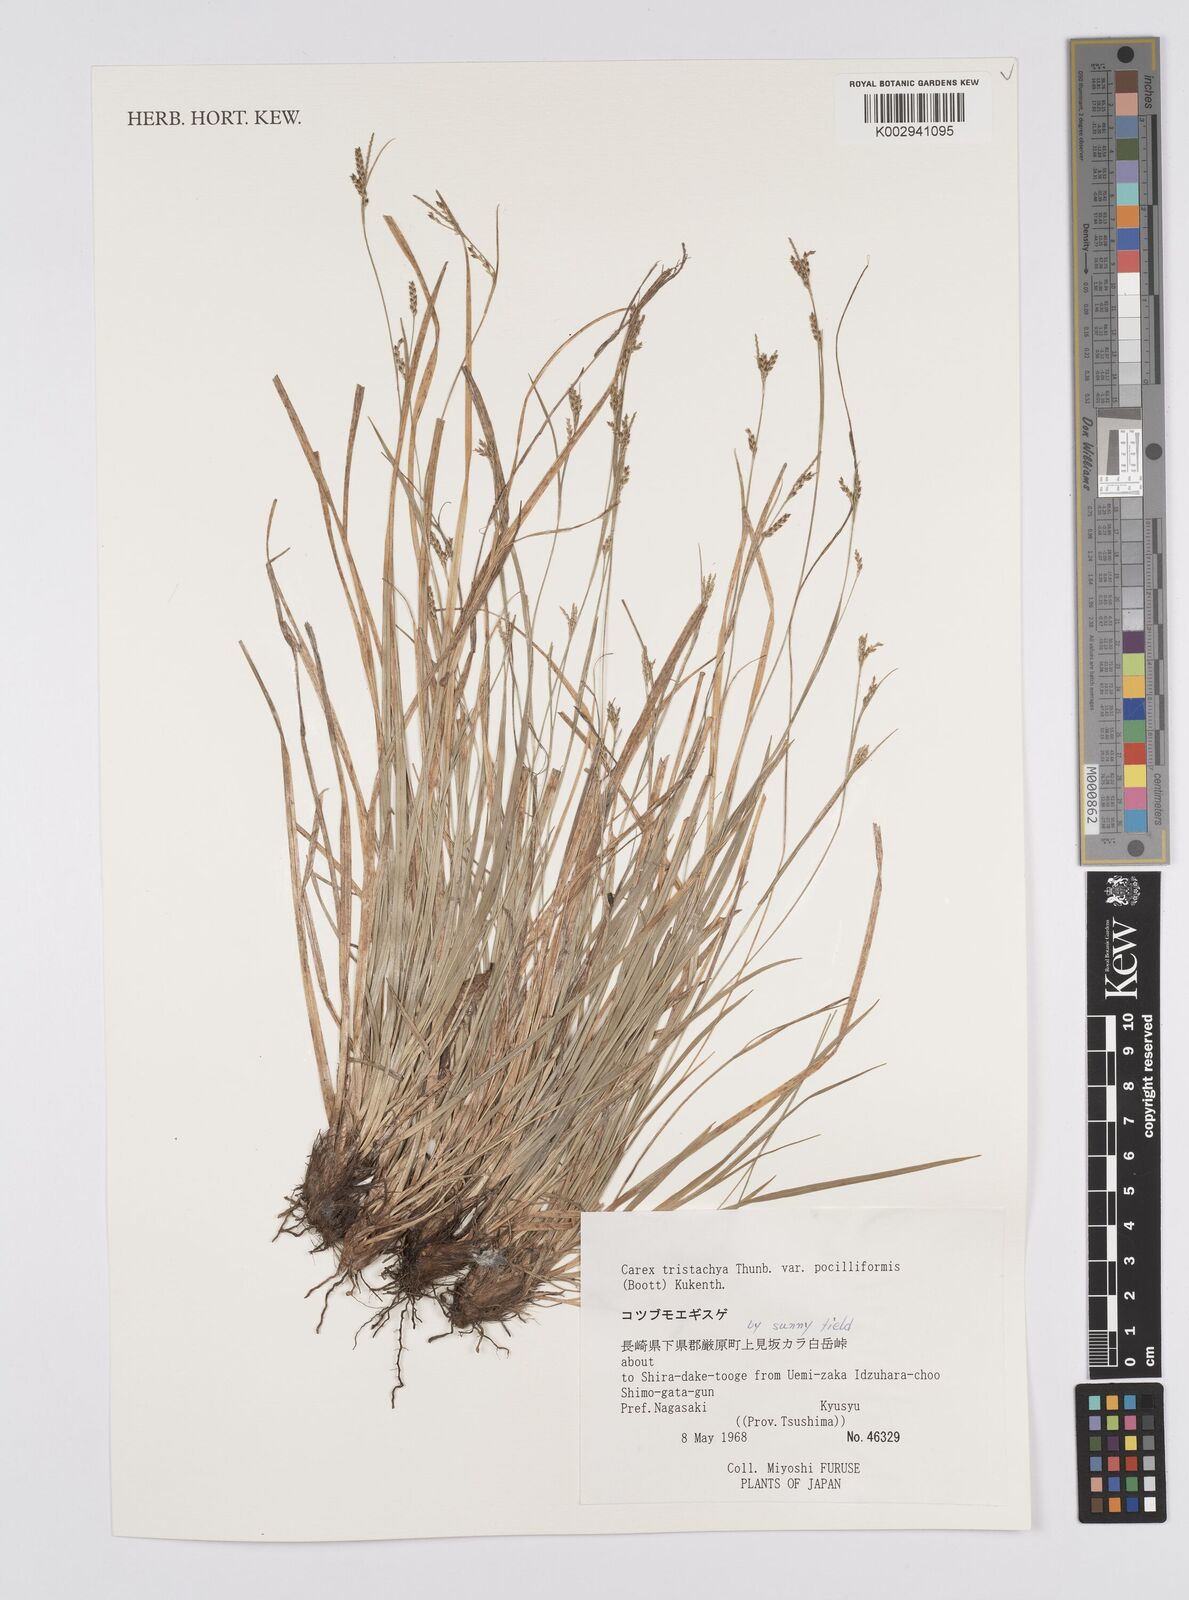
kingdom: Plantae
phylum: Tracheophyta
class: Liliopsida
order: Poales
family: Cyperaceae
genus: Carex
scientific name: Carex tristachya
